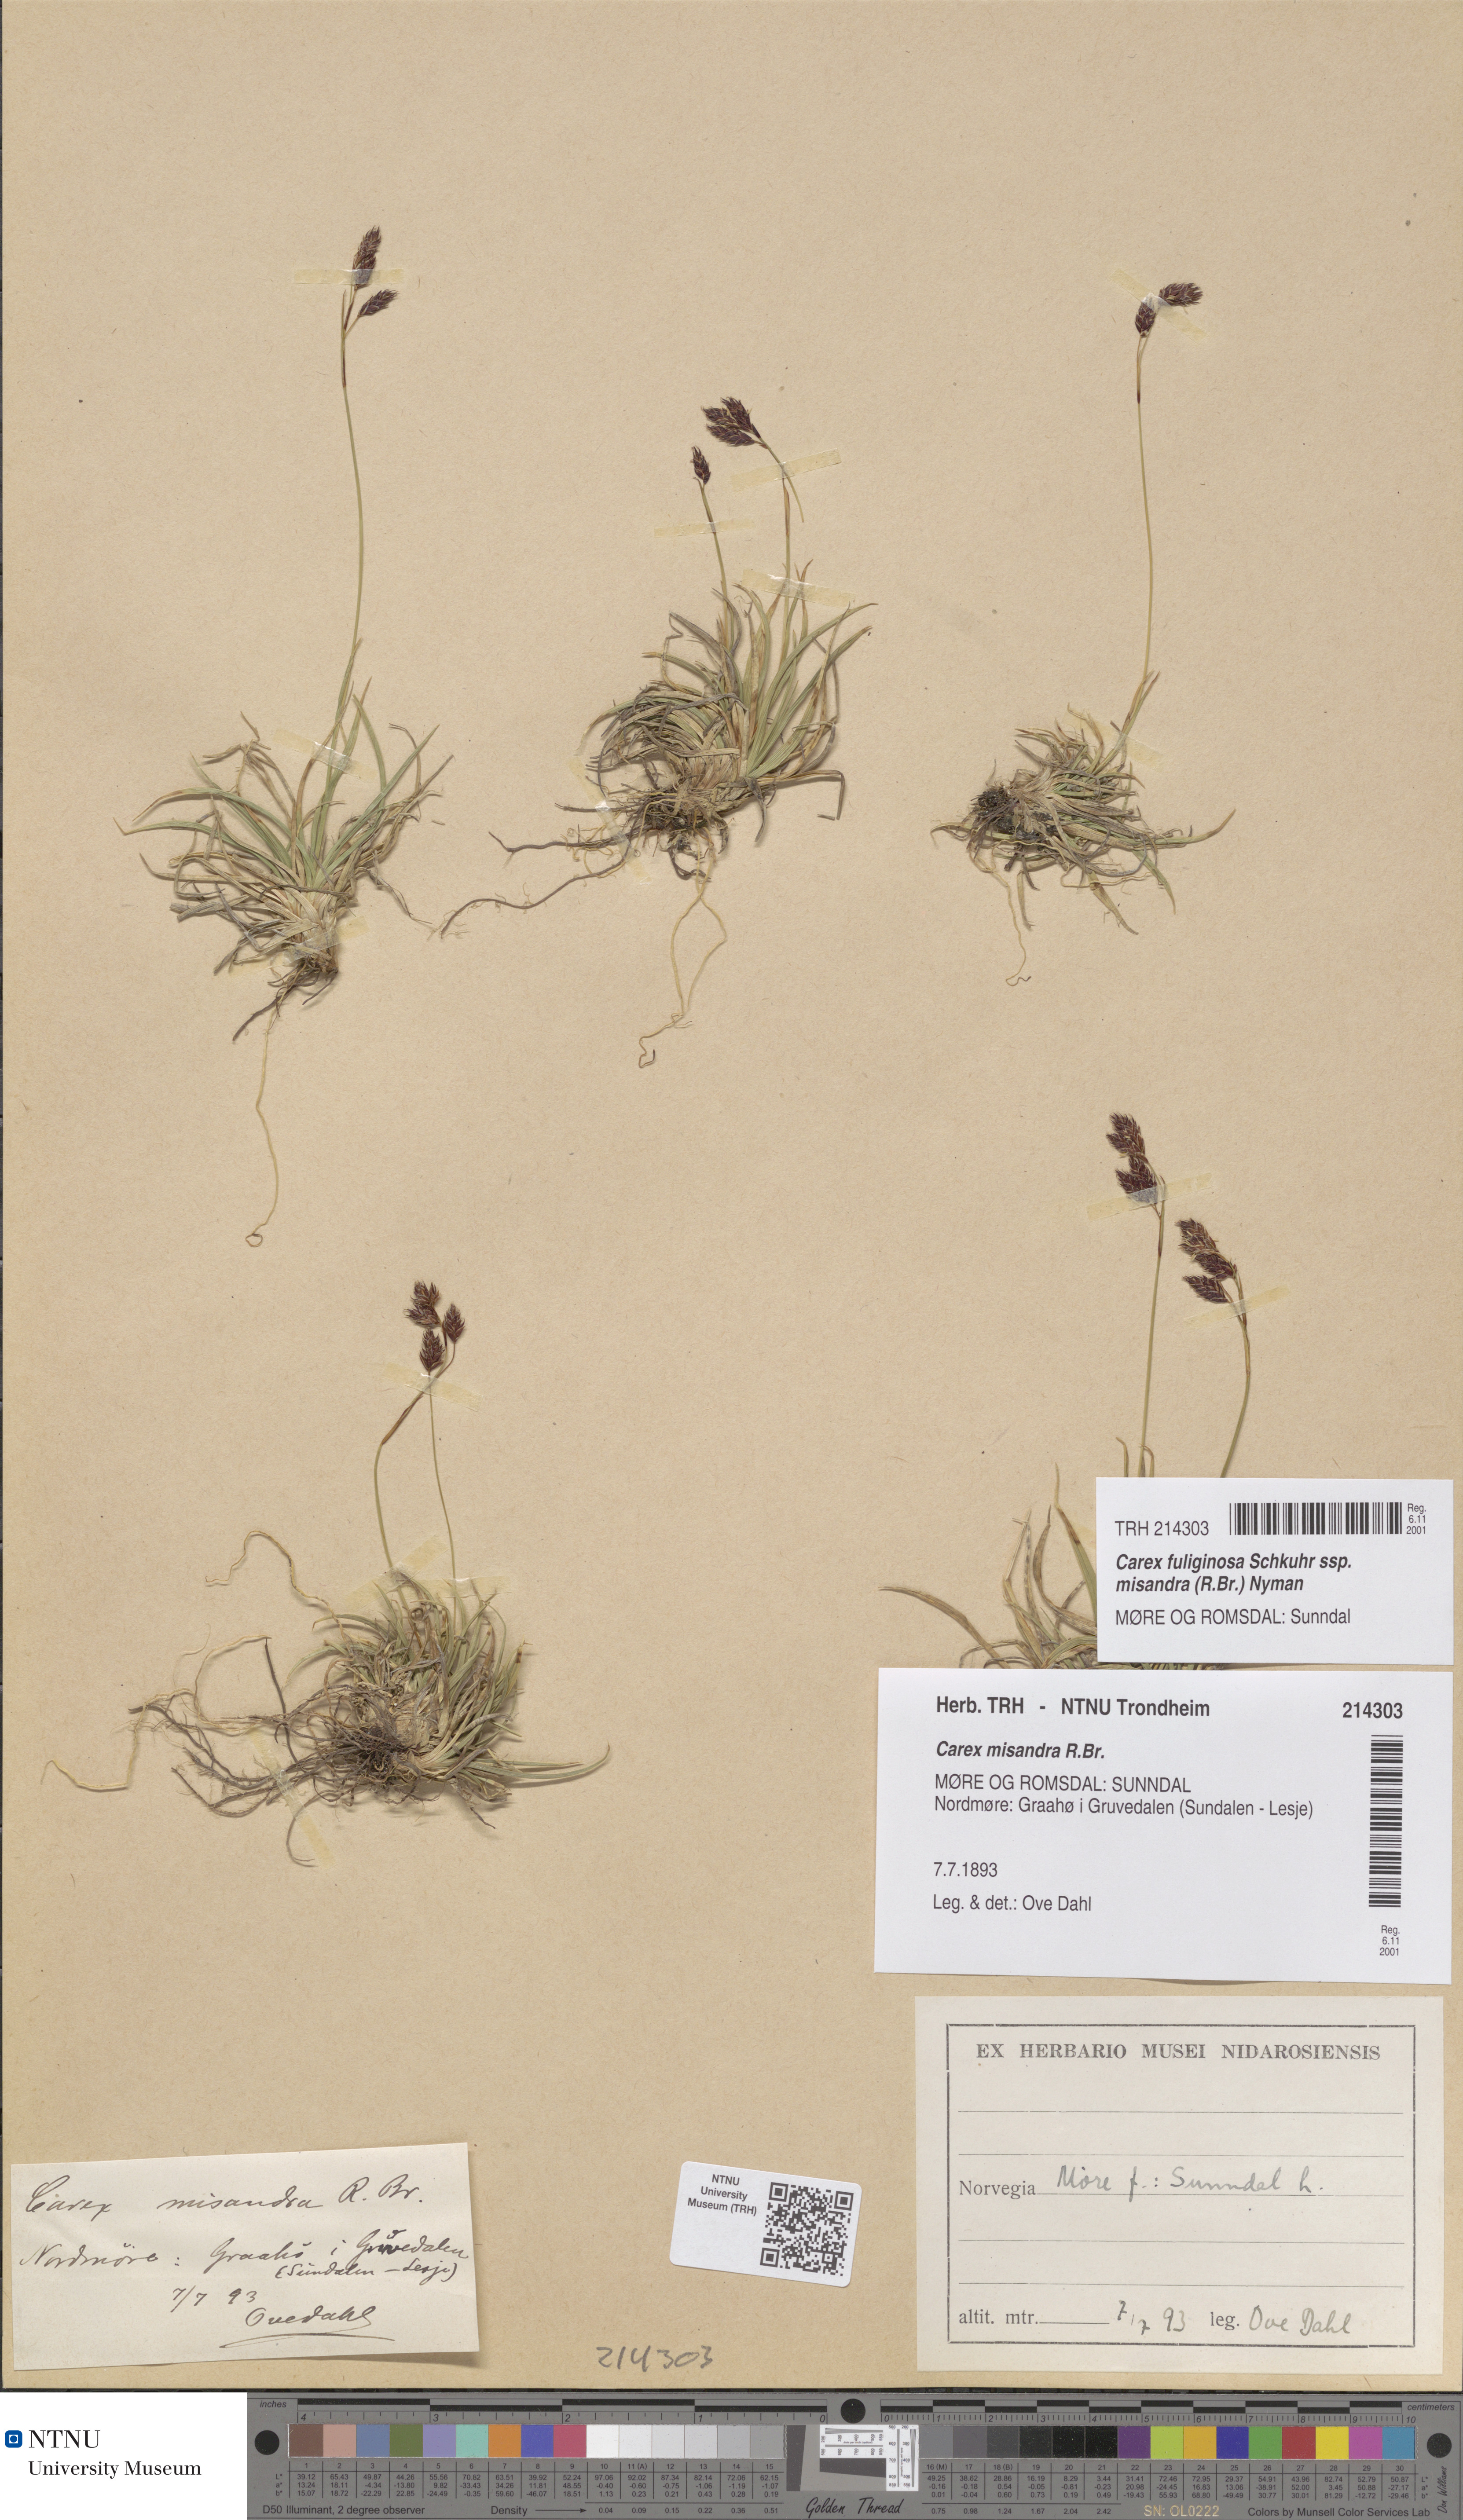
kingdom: Plantae
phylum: Tracheophyta
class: Liliopsida
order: Poales
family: Cyperaceae
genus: Carex
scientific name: Carex fuliginosa
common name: Few-flowered sedge
